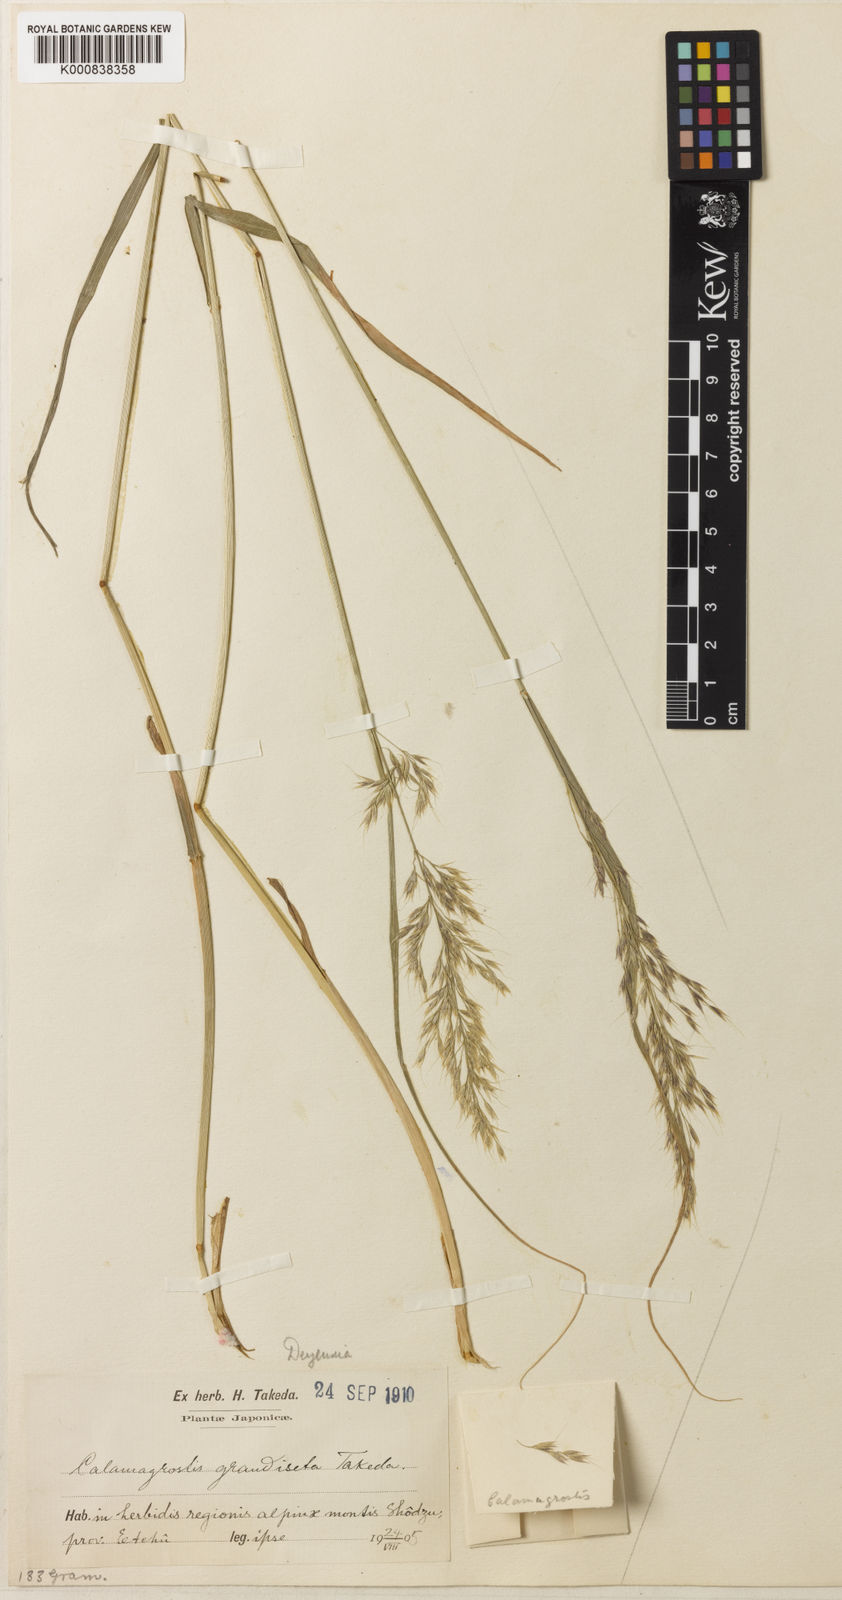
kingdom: Plantae
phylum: Tracheophyta
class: Liliopsida
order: Poales
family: Poaceae
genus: Calamagrostis
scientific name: Calamagrostis longiseta
